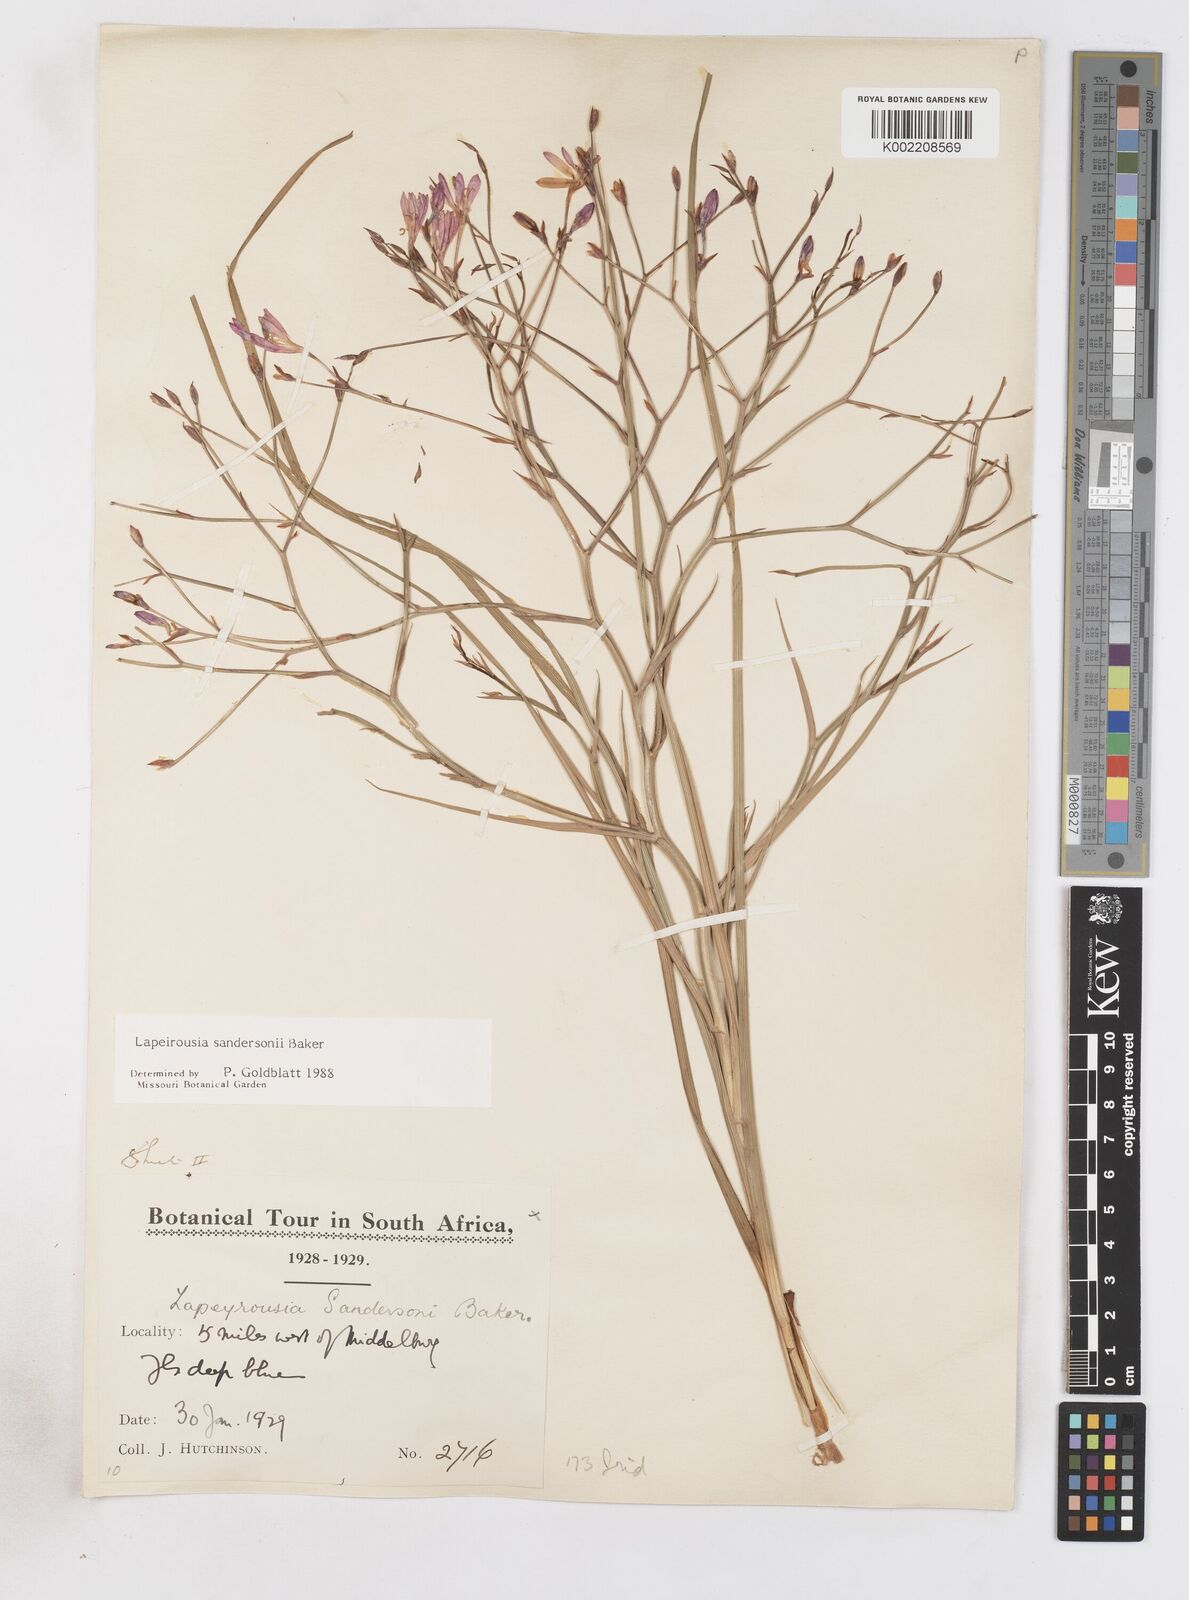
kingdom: Plantae
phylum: Tracheophyta
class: Liliopsida
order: Asparagales
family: Iridaceae
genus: Afrosolen
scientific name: Afrosolen sandersonii
